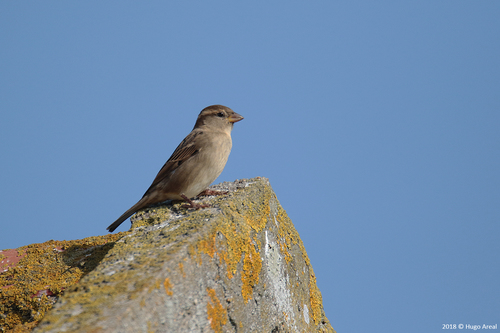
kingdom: Animalia
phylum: Chordata
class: Aves
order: Passeriformes
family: Passeridae
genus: Passer
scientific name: Passer domesticus
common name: House sparrow
